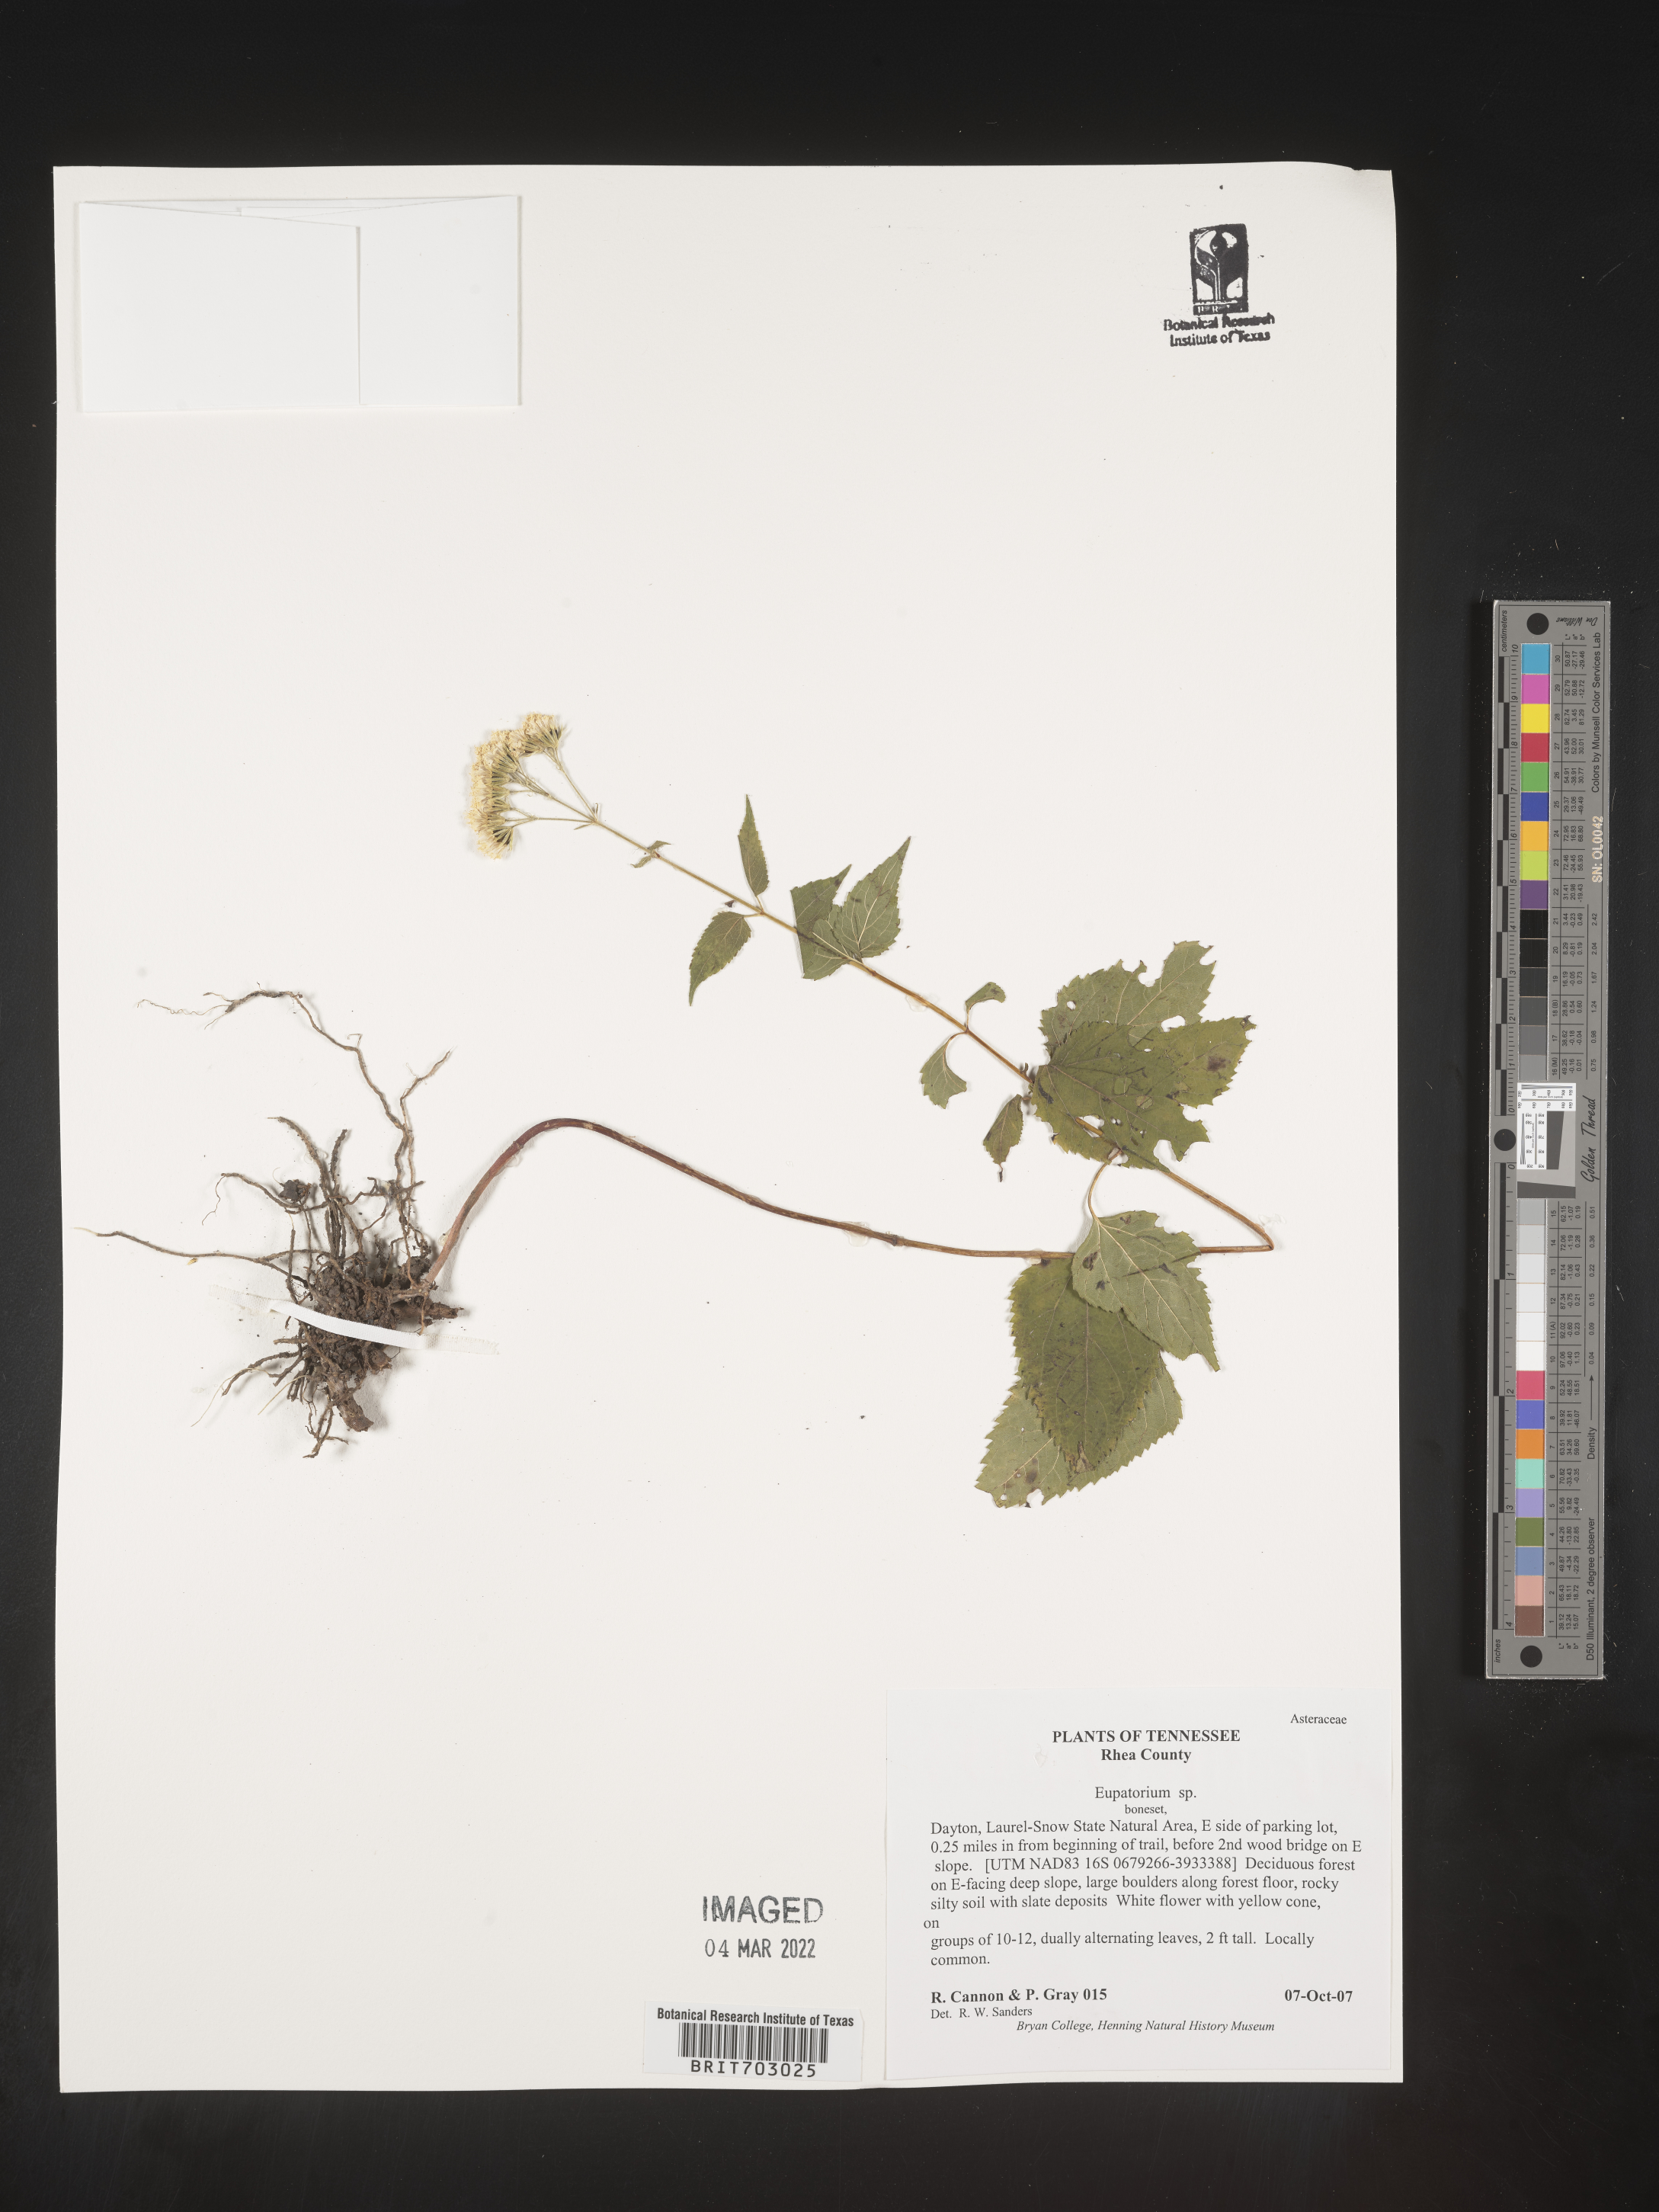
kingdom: Plantae
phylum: Tracheophyta
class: Magnoliopsida
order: Asterales
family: Asteraceae
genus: Eupatorium
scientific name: Eupatorium
